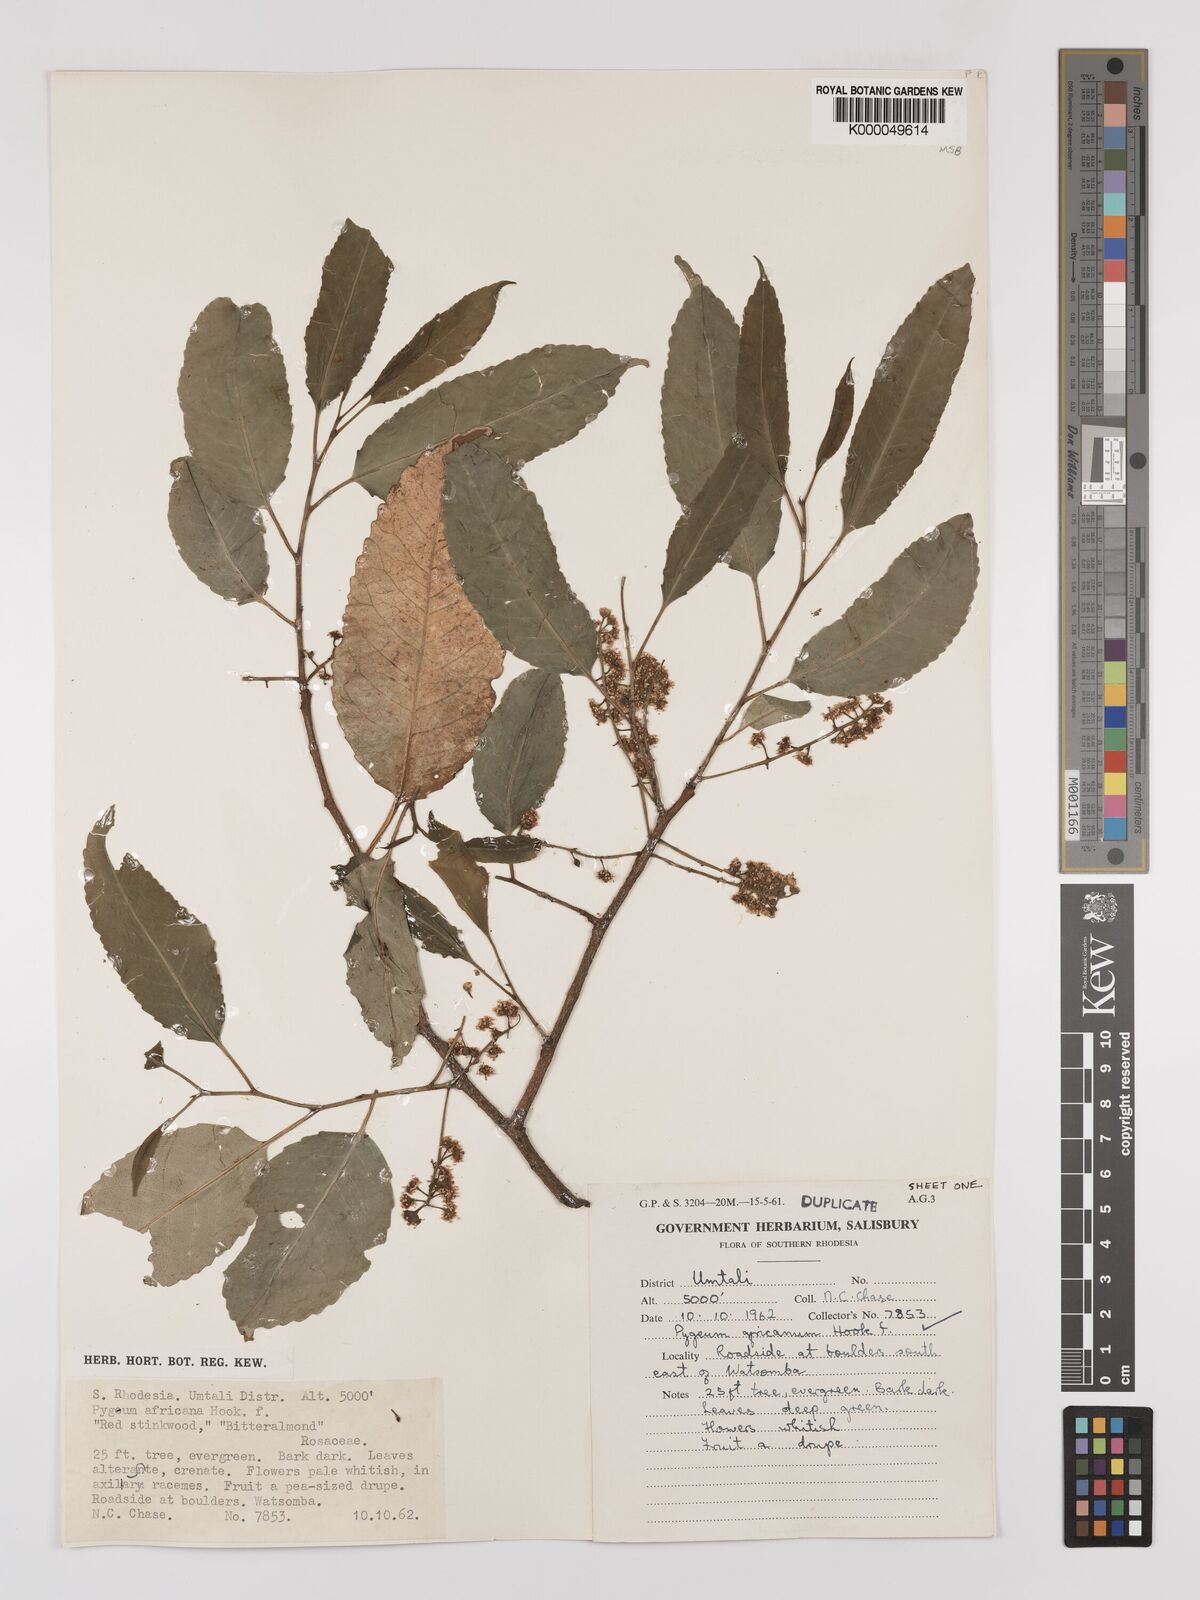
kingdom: Plantae
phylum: Tracheophyta
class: Magnoliopsida
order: Rosales
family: Rosaceae
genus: Prunus
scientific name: Prunus africana
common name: African cherry
